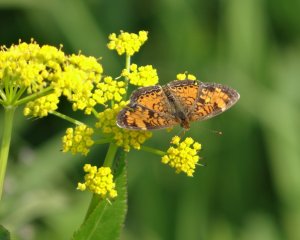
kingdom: Animalia
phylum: Arthropoda
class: Insecta
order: Lepidoptera
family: Nymphalidae
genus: Phyciodes
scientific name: Phyciodes tharos
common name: Pearl Crescent
